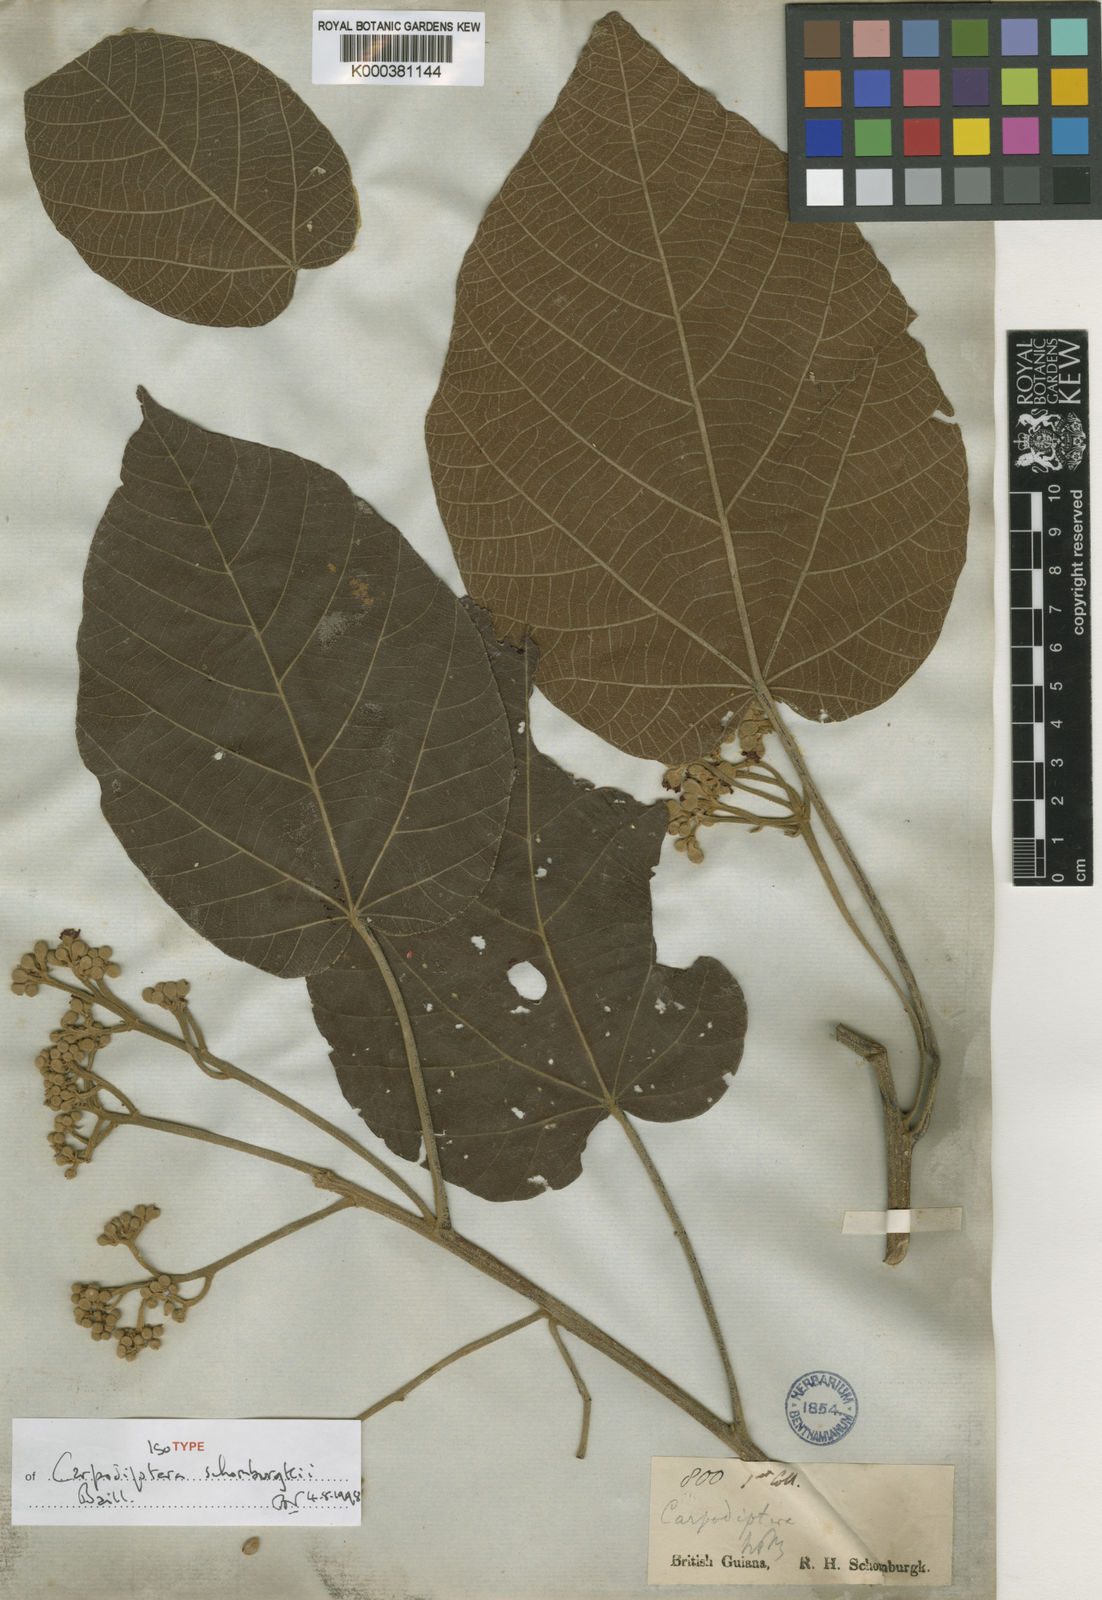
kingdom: Plantae
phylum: Tracheophyta
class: Magnoliopsida
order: Malvales
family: Malvaceae
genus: Christiana
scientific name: Christiana africana
